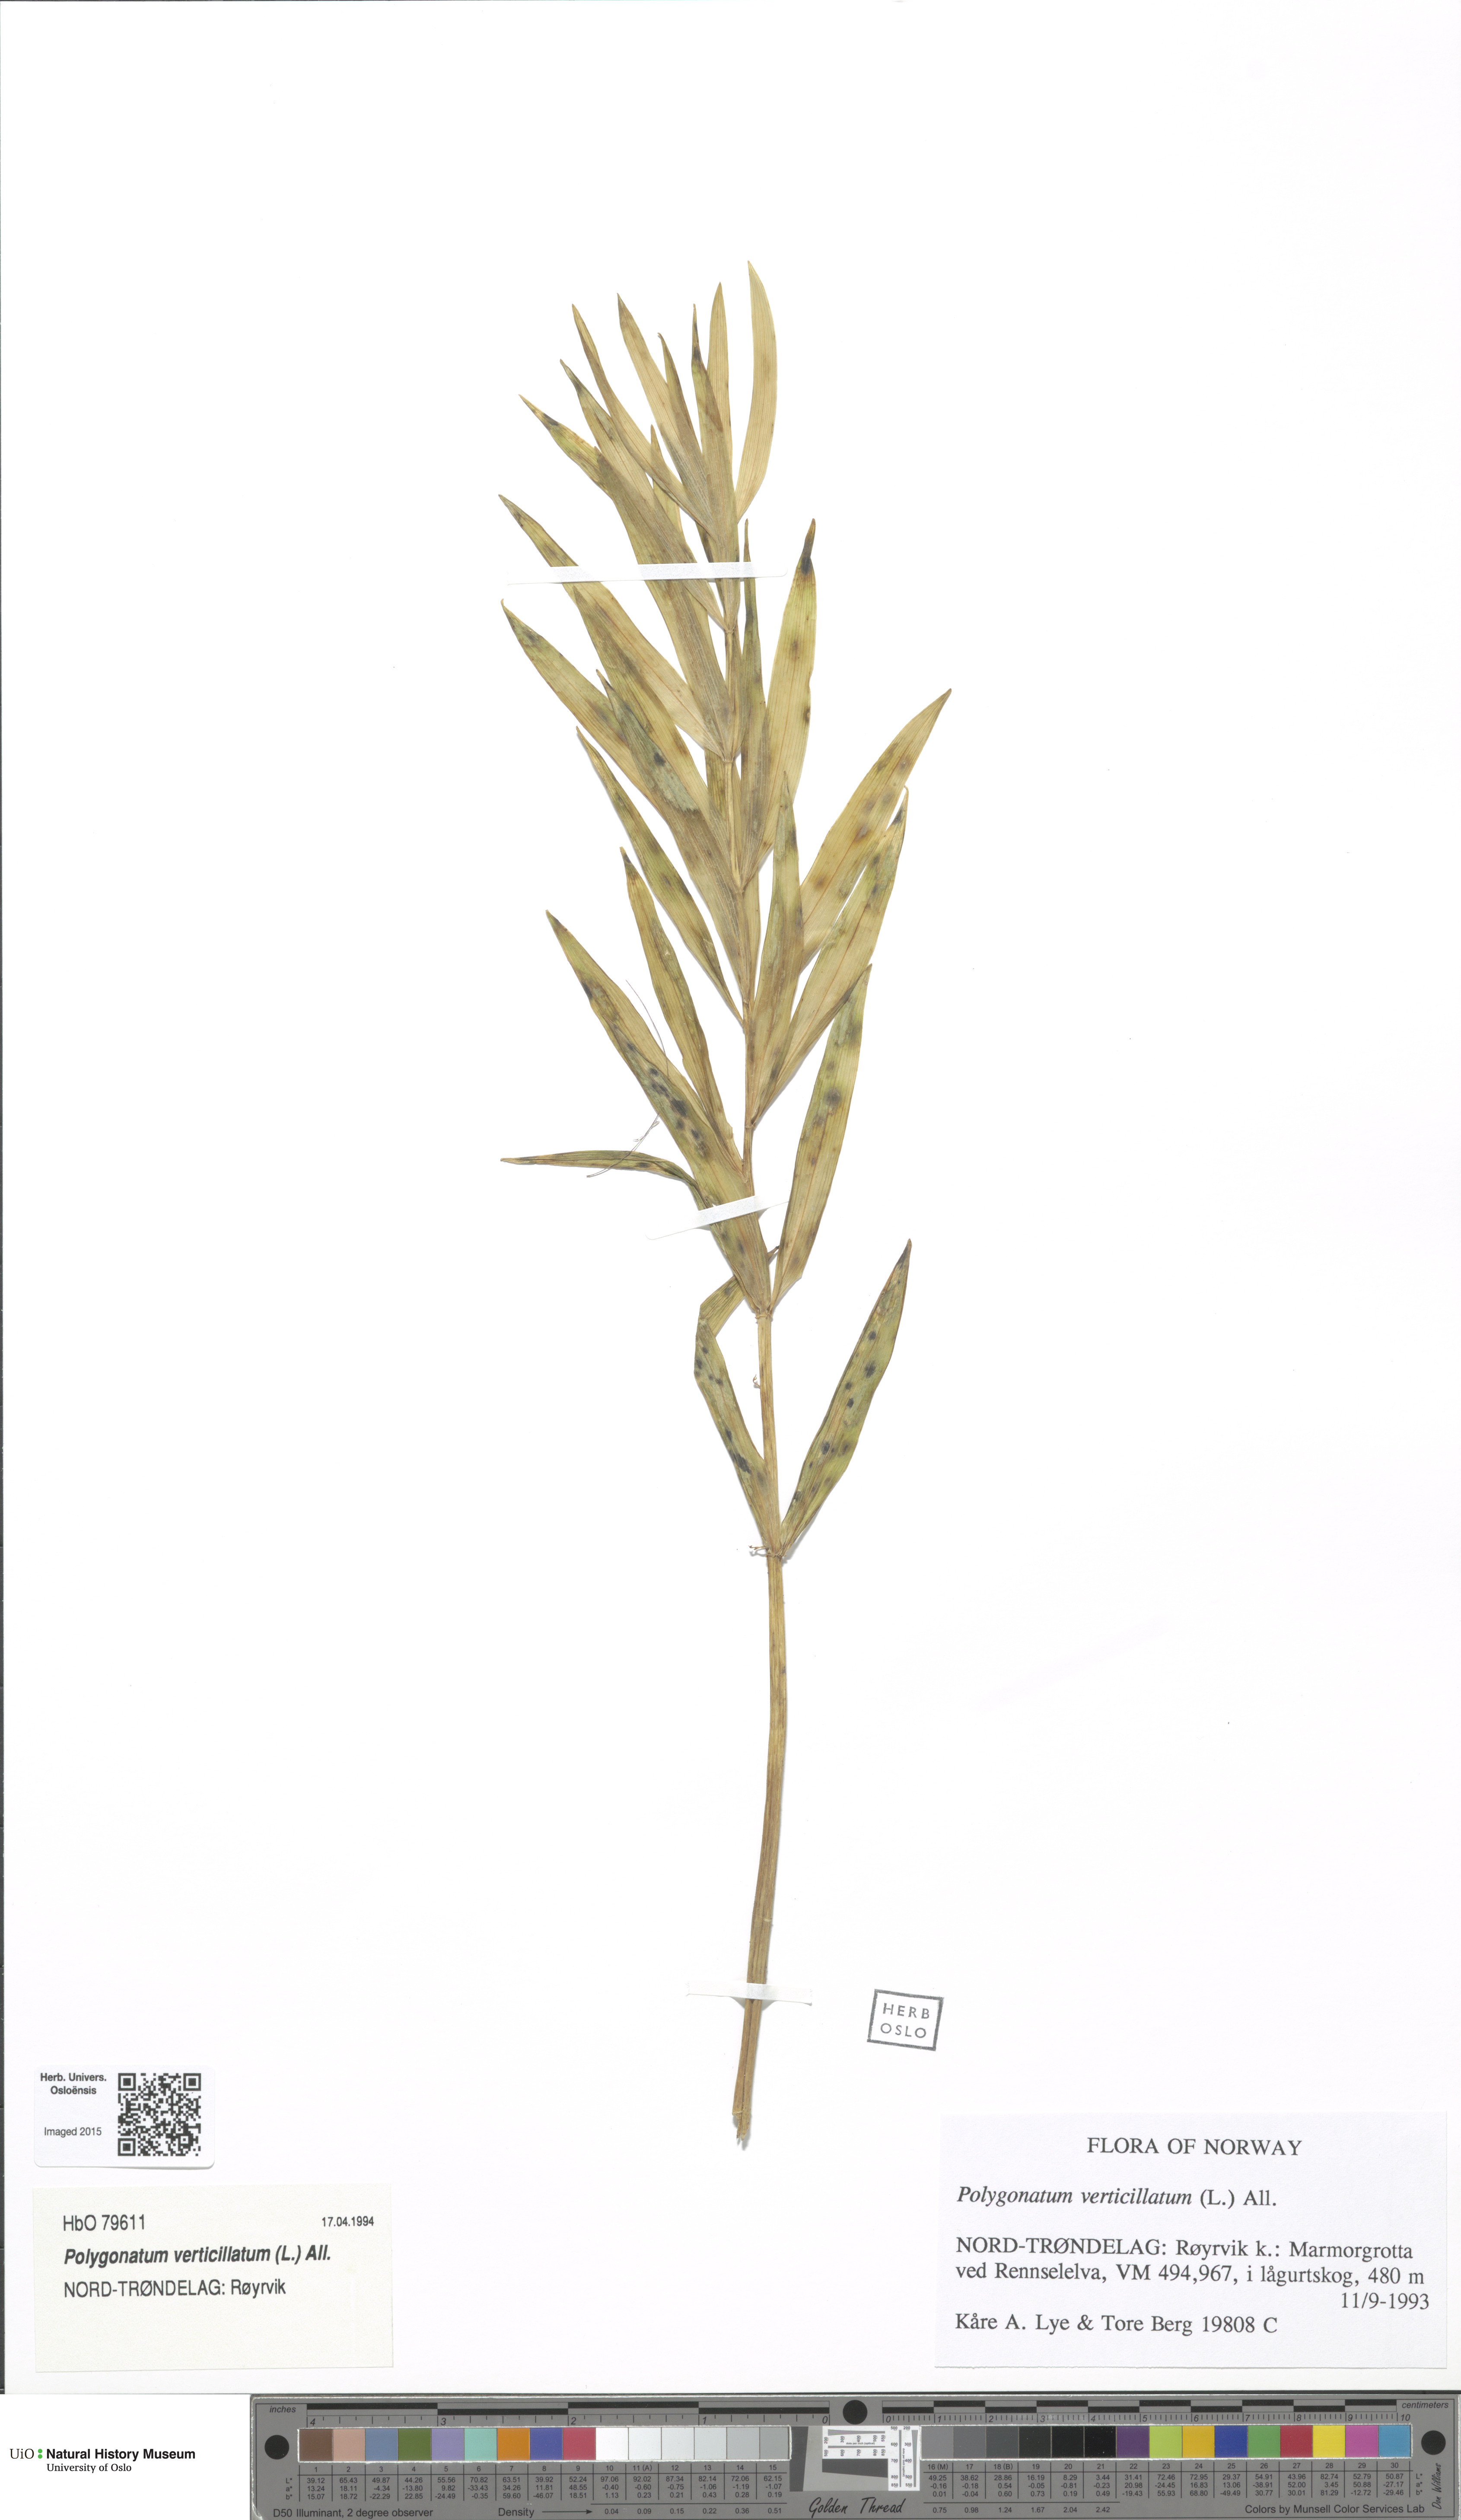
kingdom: Plantae
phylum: Tracheophyta
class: Liliopsida
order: Asparagales
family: Asparagaceae
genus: Polygonatum
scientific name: Polygonatum verticillatum
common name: Whorled solomon's-seal
